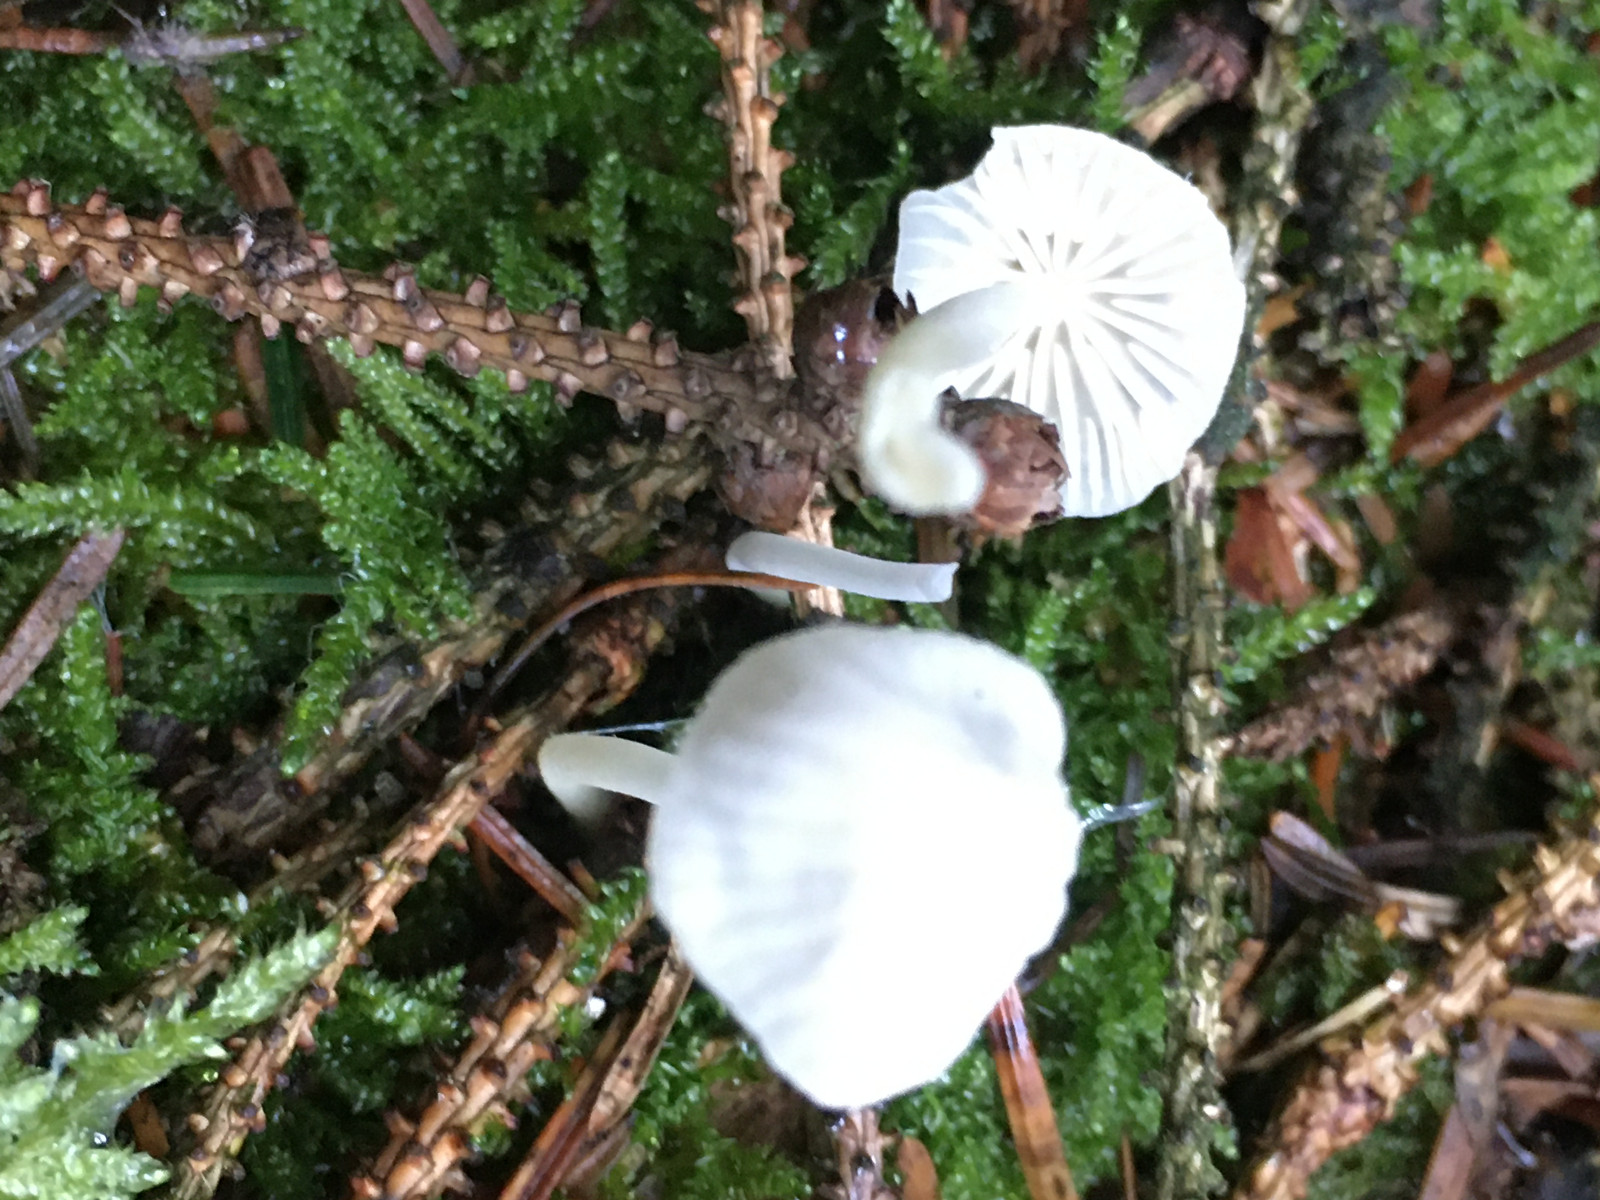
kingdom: Fungi
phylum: Basidiomycota
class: Agaricomycetes
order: Agaricales
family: Mycenaceae
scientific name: Mycenaceae
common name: huesvampfamilien
